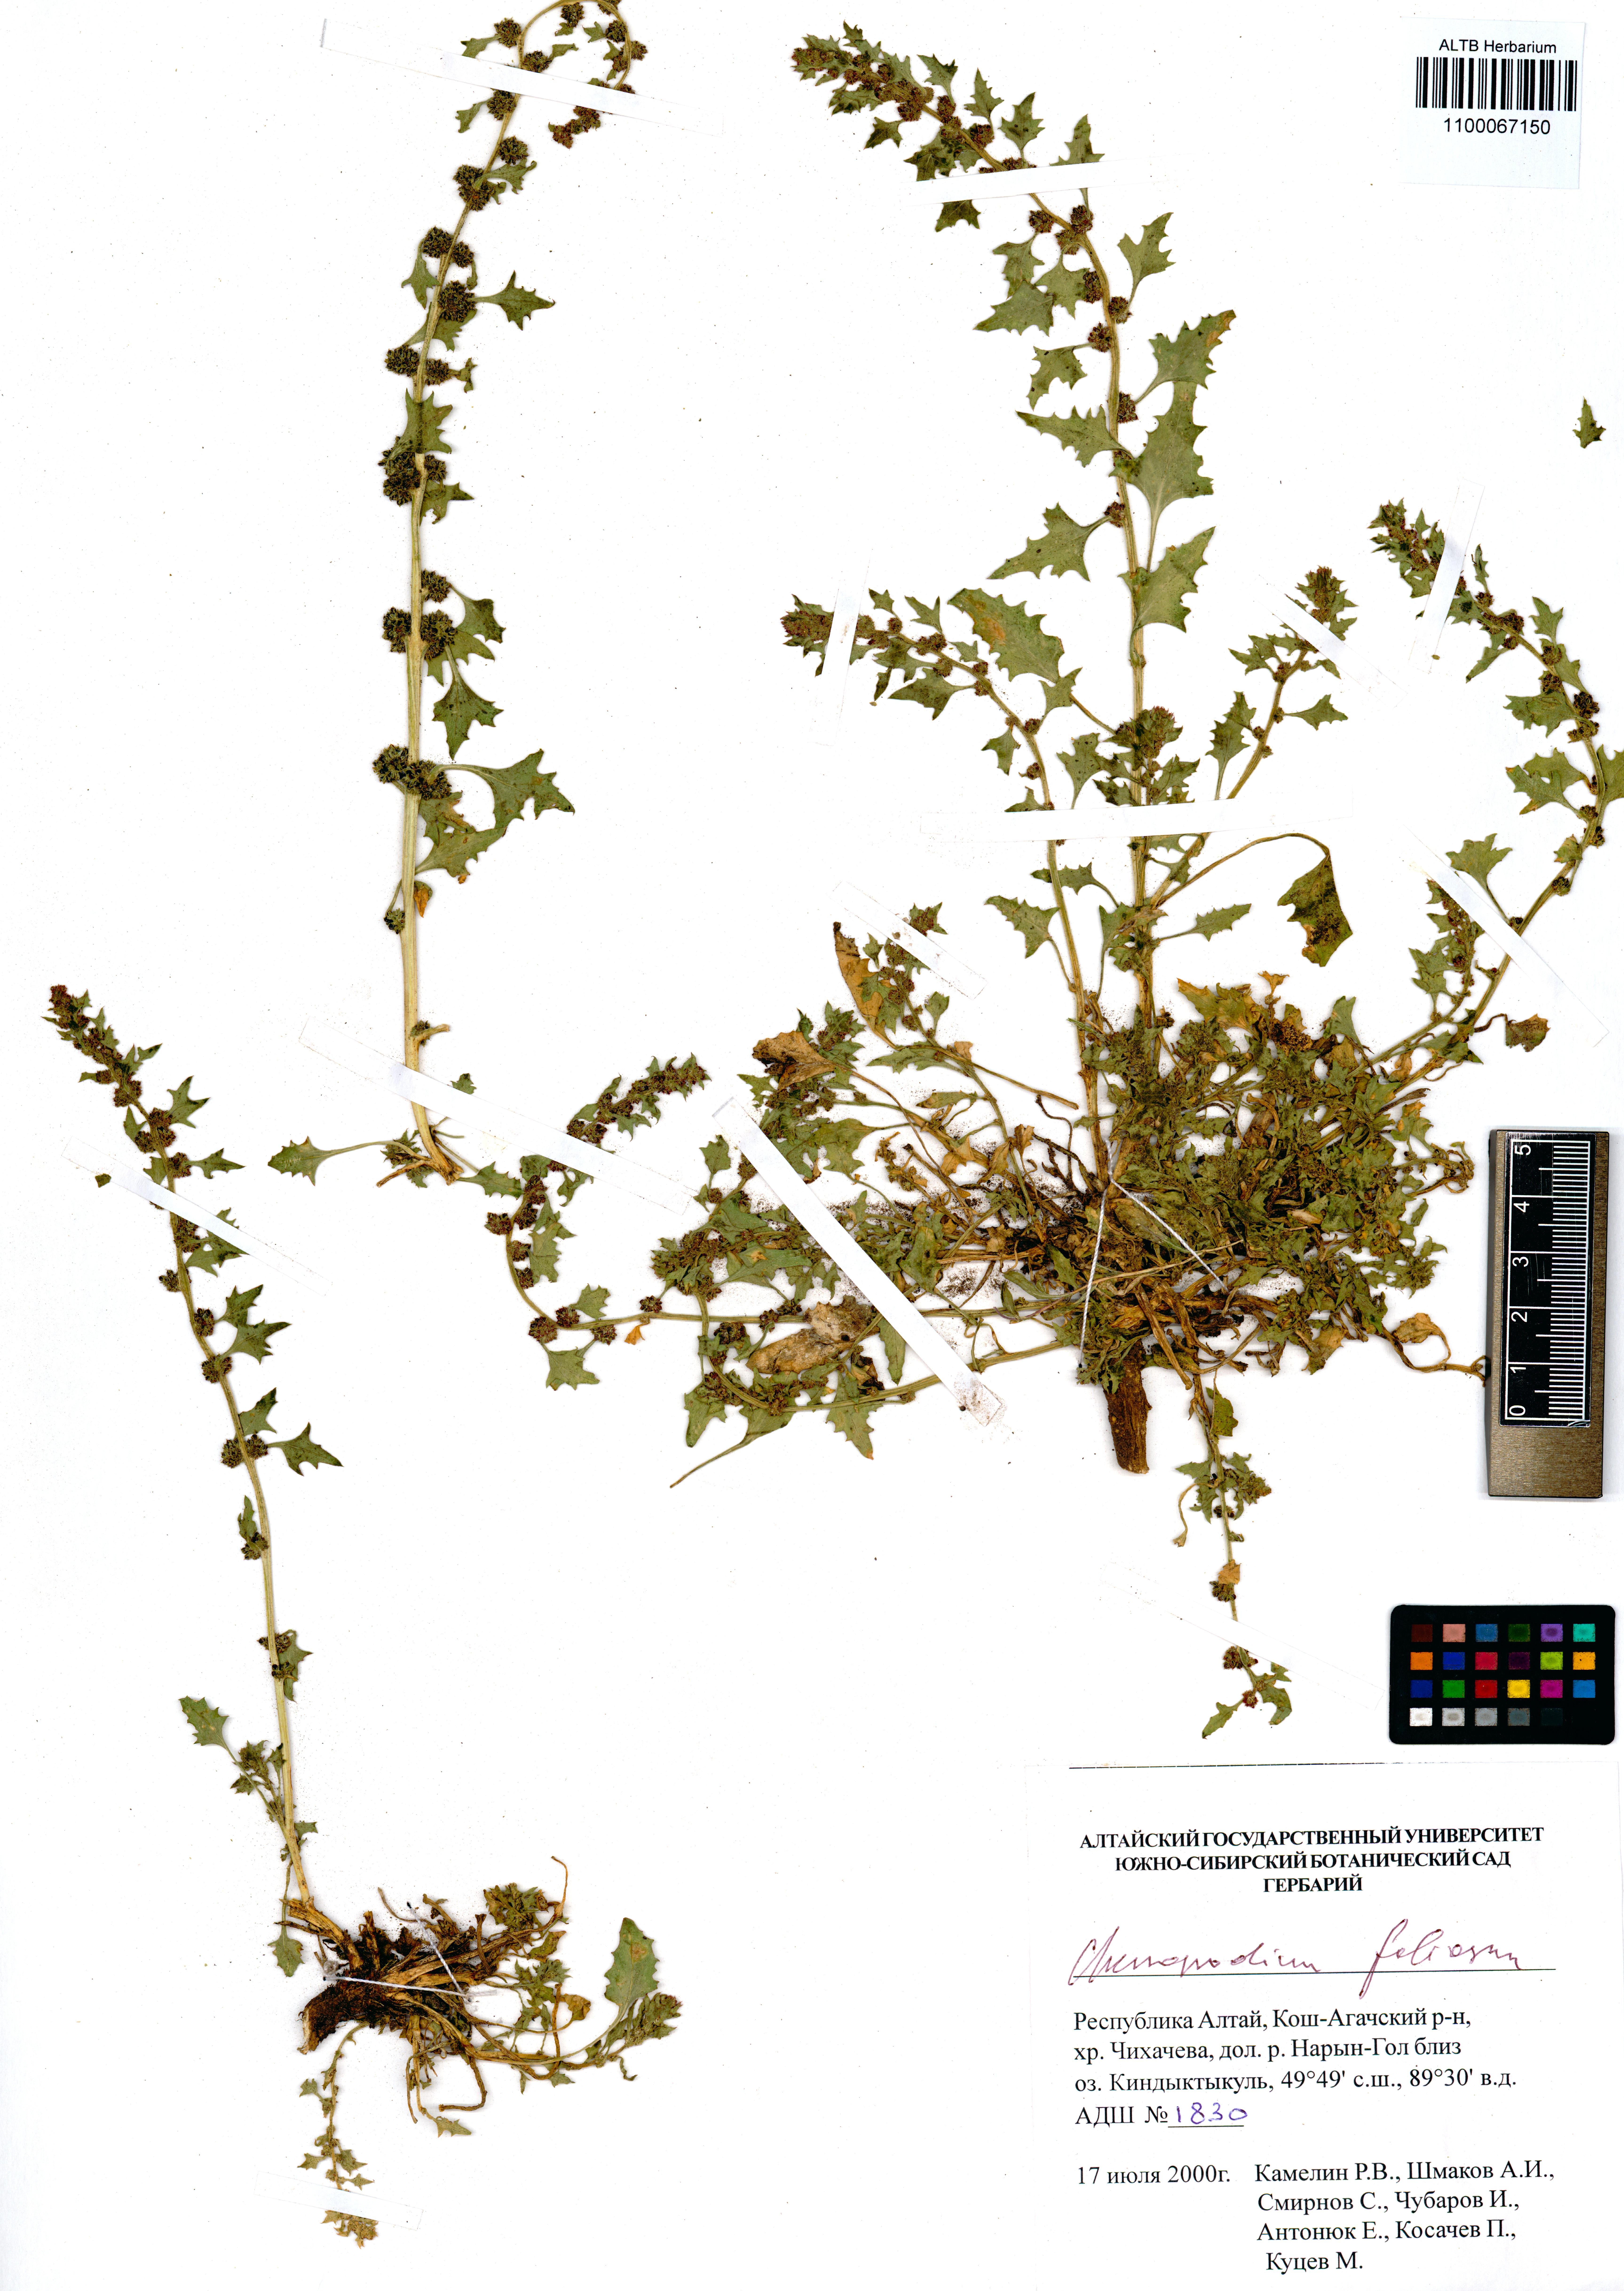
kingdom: Plantae
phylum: Tracheophyta
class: Magnoliopsida
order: Caryophyllales
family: Amaranthaceae
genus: Blitum
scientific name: Blitum virgatum
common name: Strawberry goosefoot
